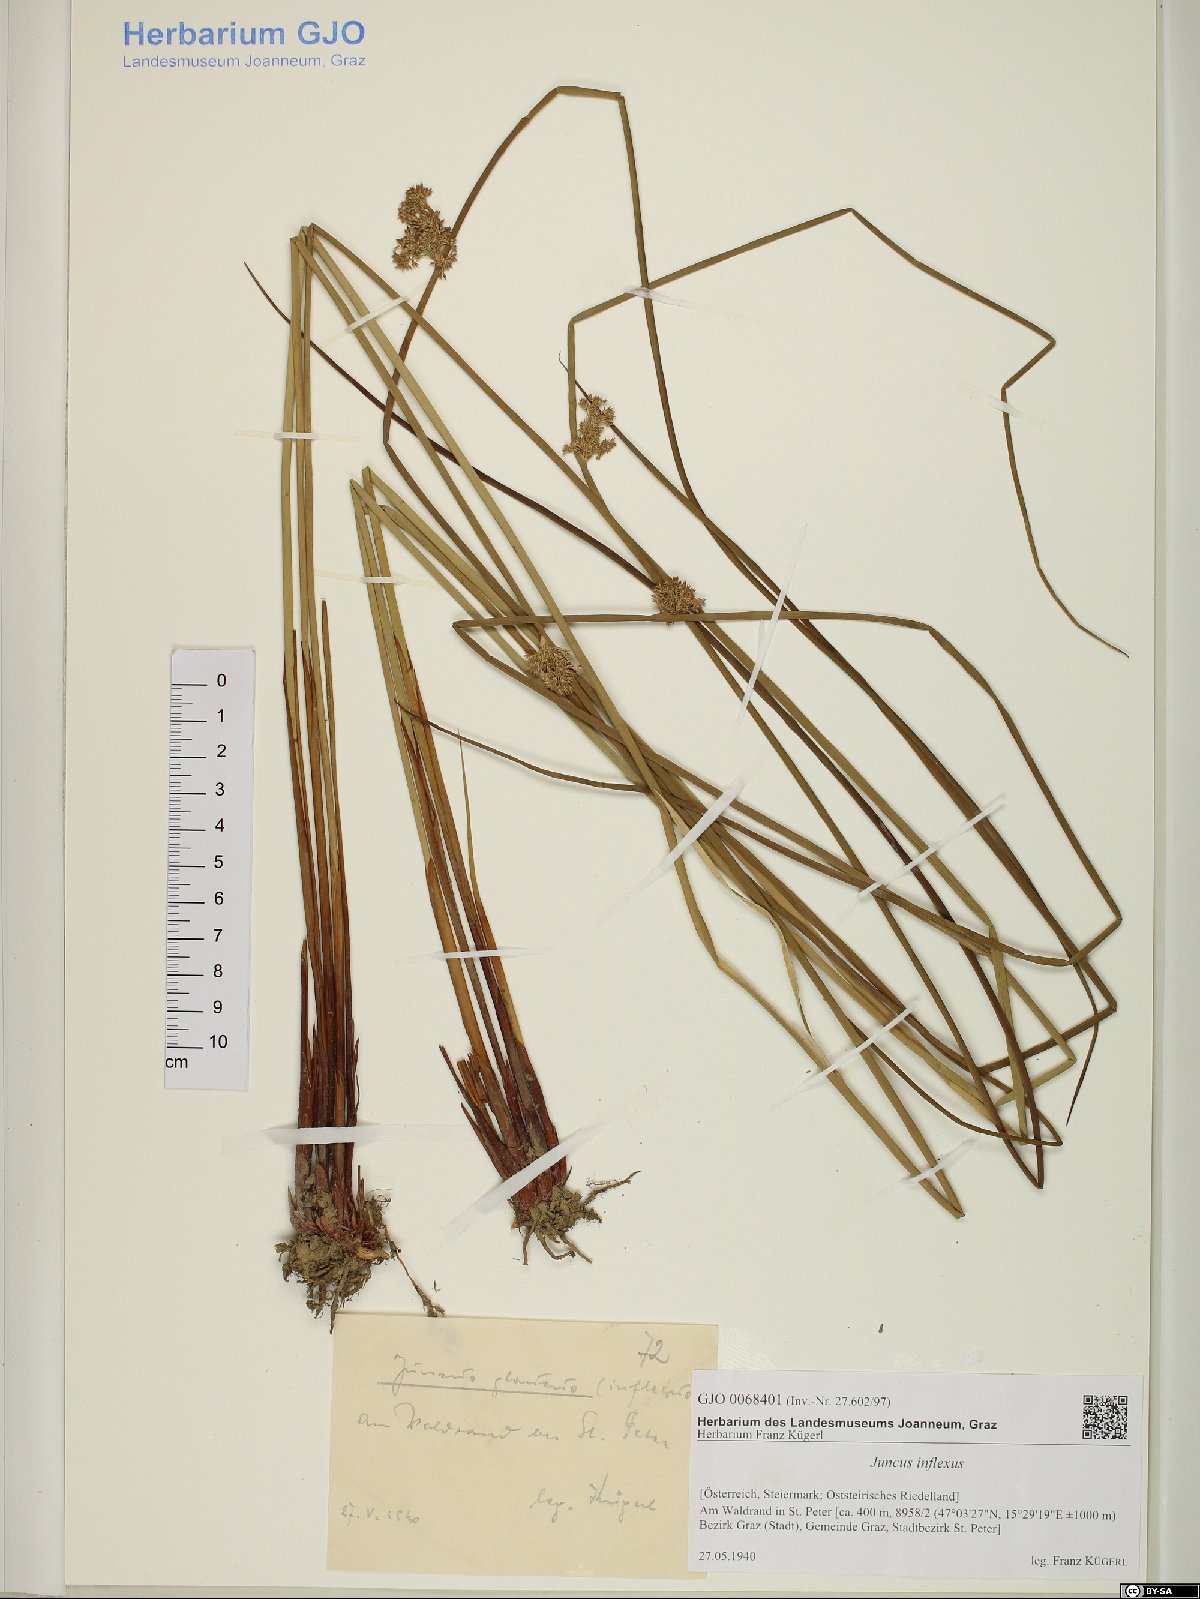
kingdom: Plantae
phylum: Tracheophyta
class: Liliopsida
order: Poales
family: Juncaceae
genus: Juncus
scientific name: Juncus inflexus
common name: Hard rush
